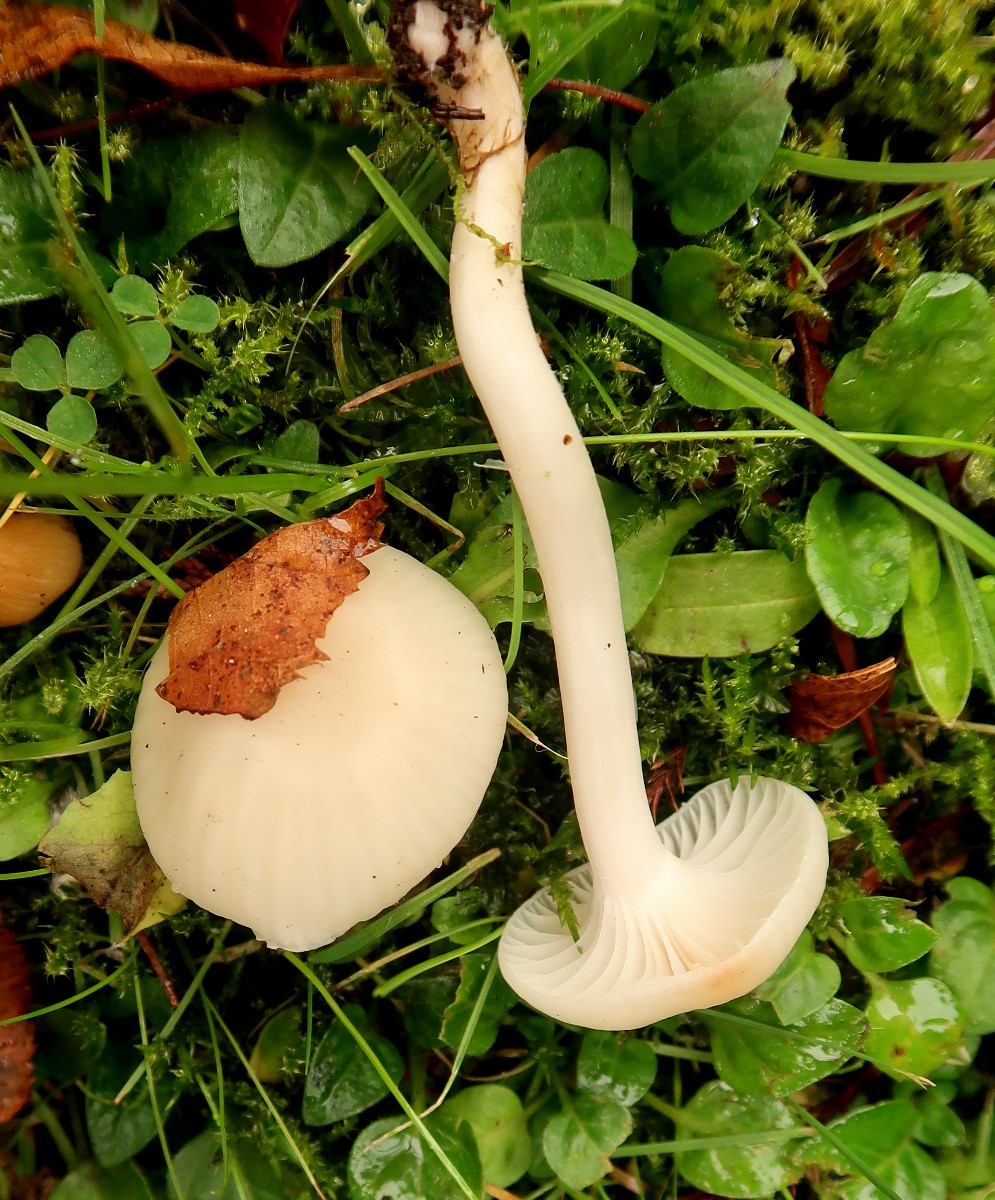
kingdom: Fungi
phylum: Basidiomycota
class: Agaricomycetes
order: Agaricales
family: Hygrophoraceae
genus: Cuphophyllus
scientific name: Cuphophyllus virgineus
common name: snehvid vokshat
